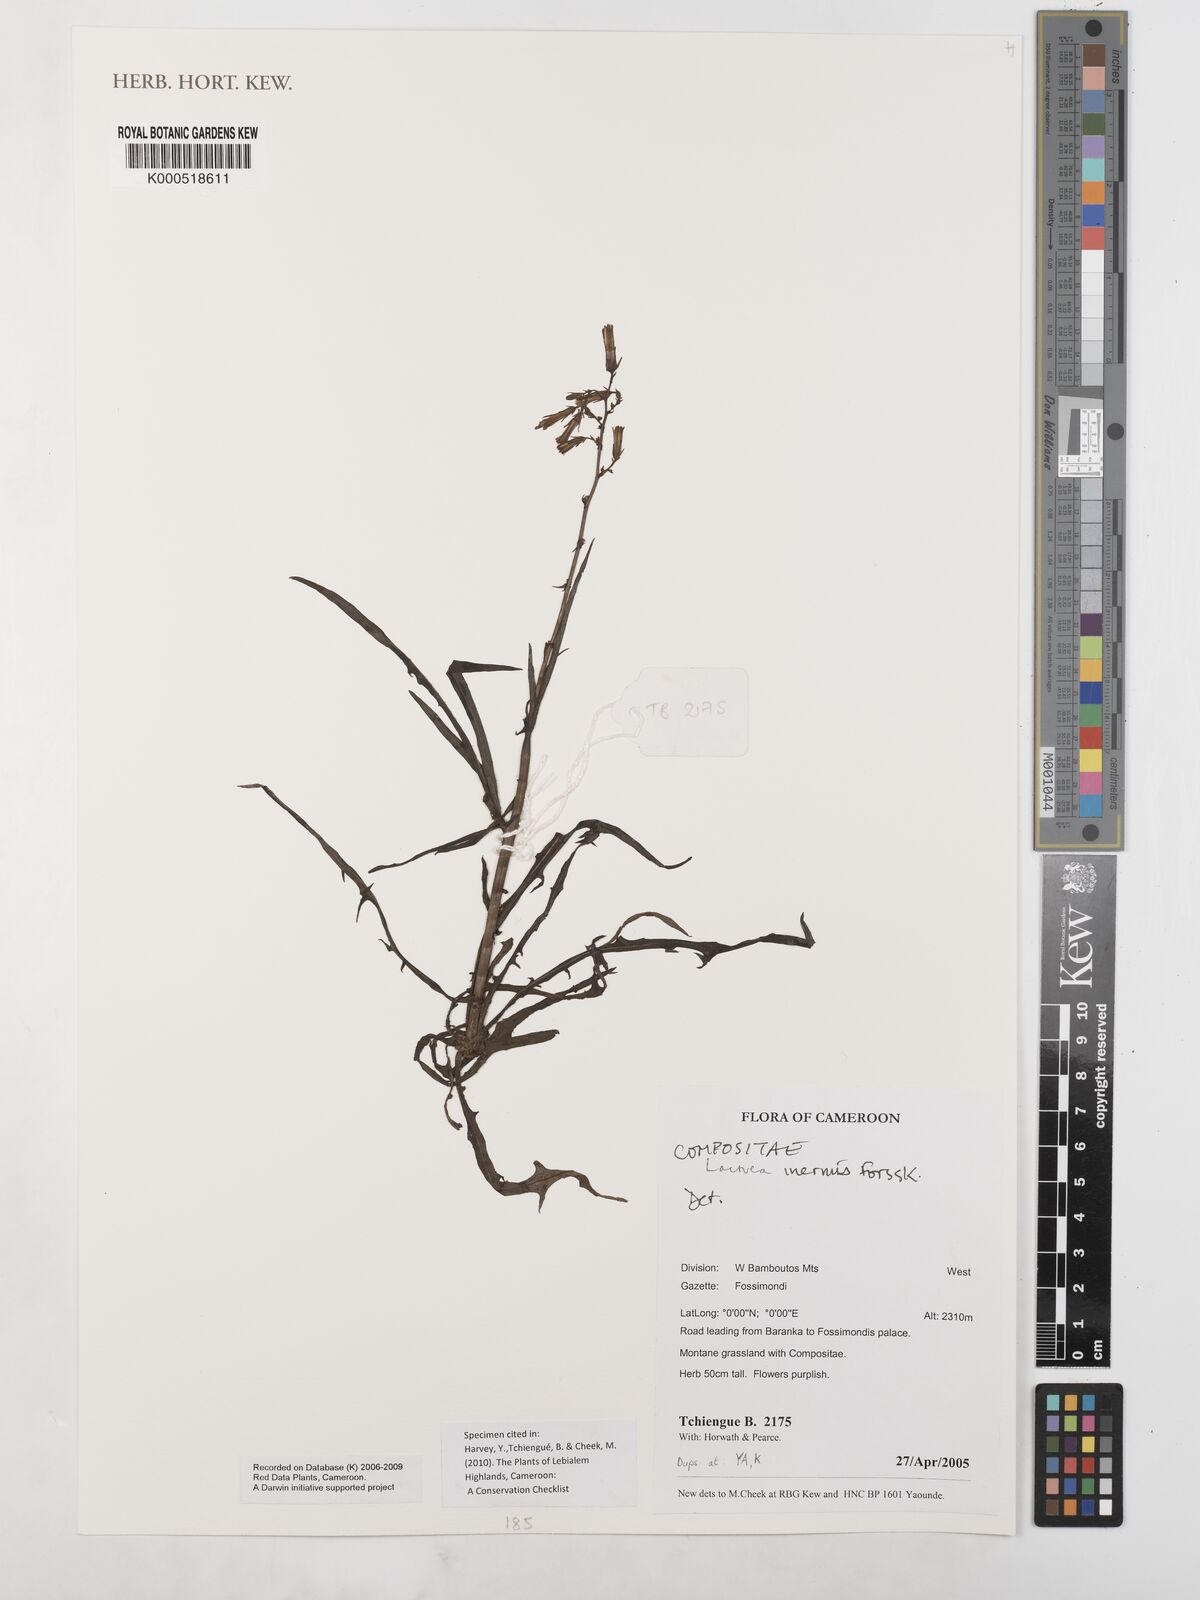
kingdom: Plantae
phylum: Tracheophyta
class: Magnoliopsida
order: Asterales
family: Asteraceae
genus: Lactuca
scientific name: Lactuca inermis
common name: Wild lettuce
